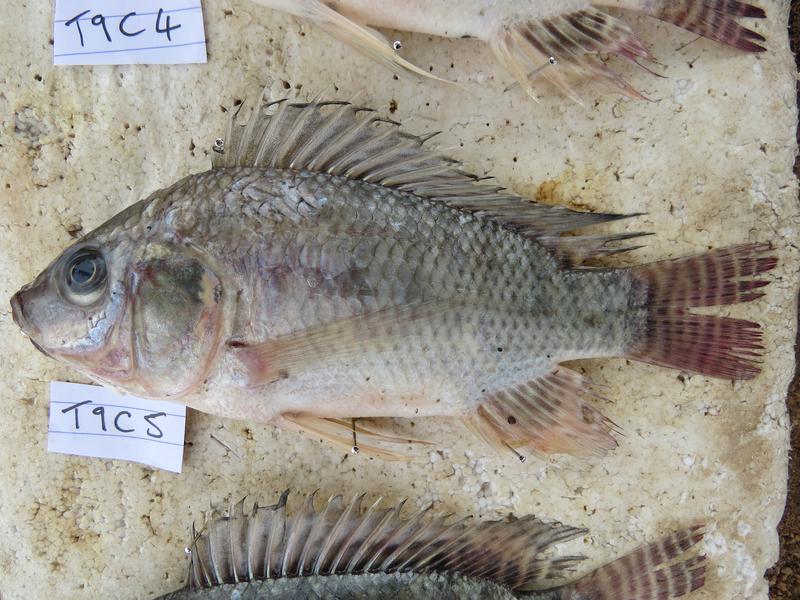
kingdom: Animalia
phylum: Chordata
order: Perciformes
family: Cichlidae
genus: Oreochromis
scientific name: Oreochromis niloticus
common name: Nile tilapia
